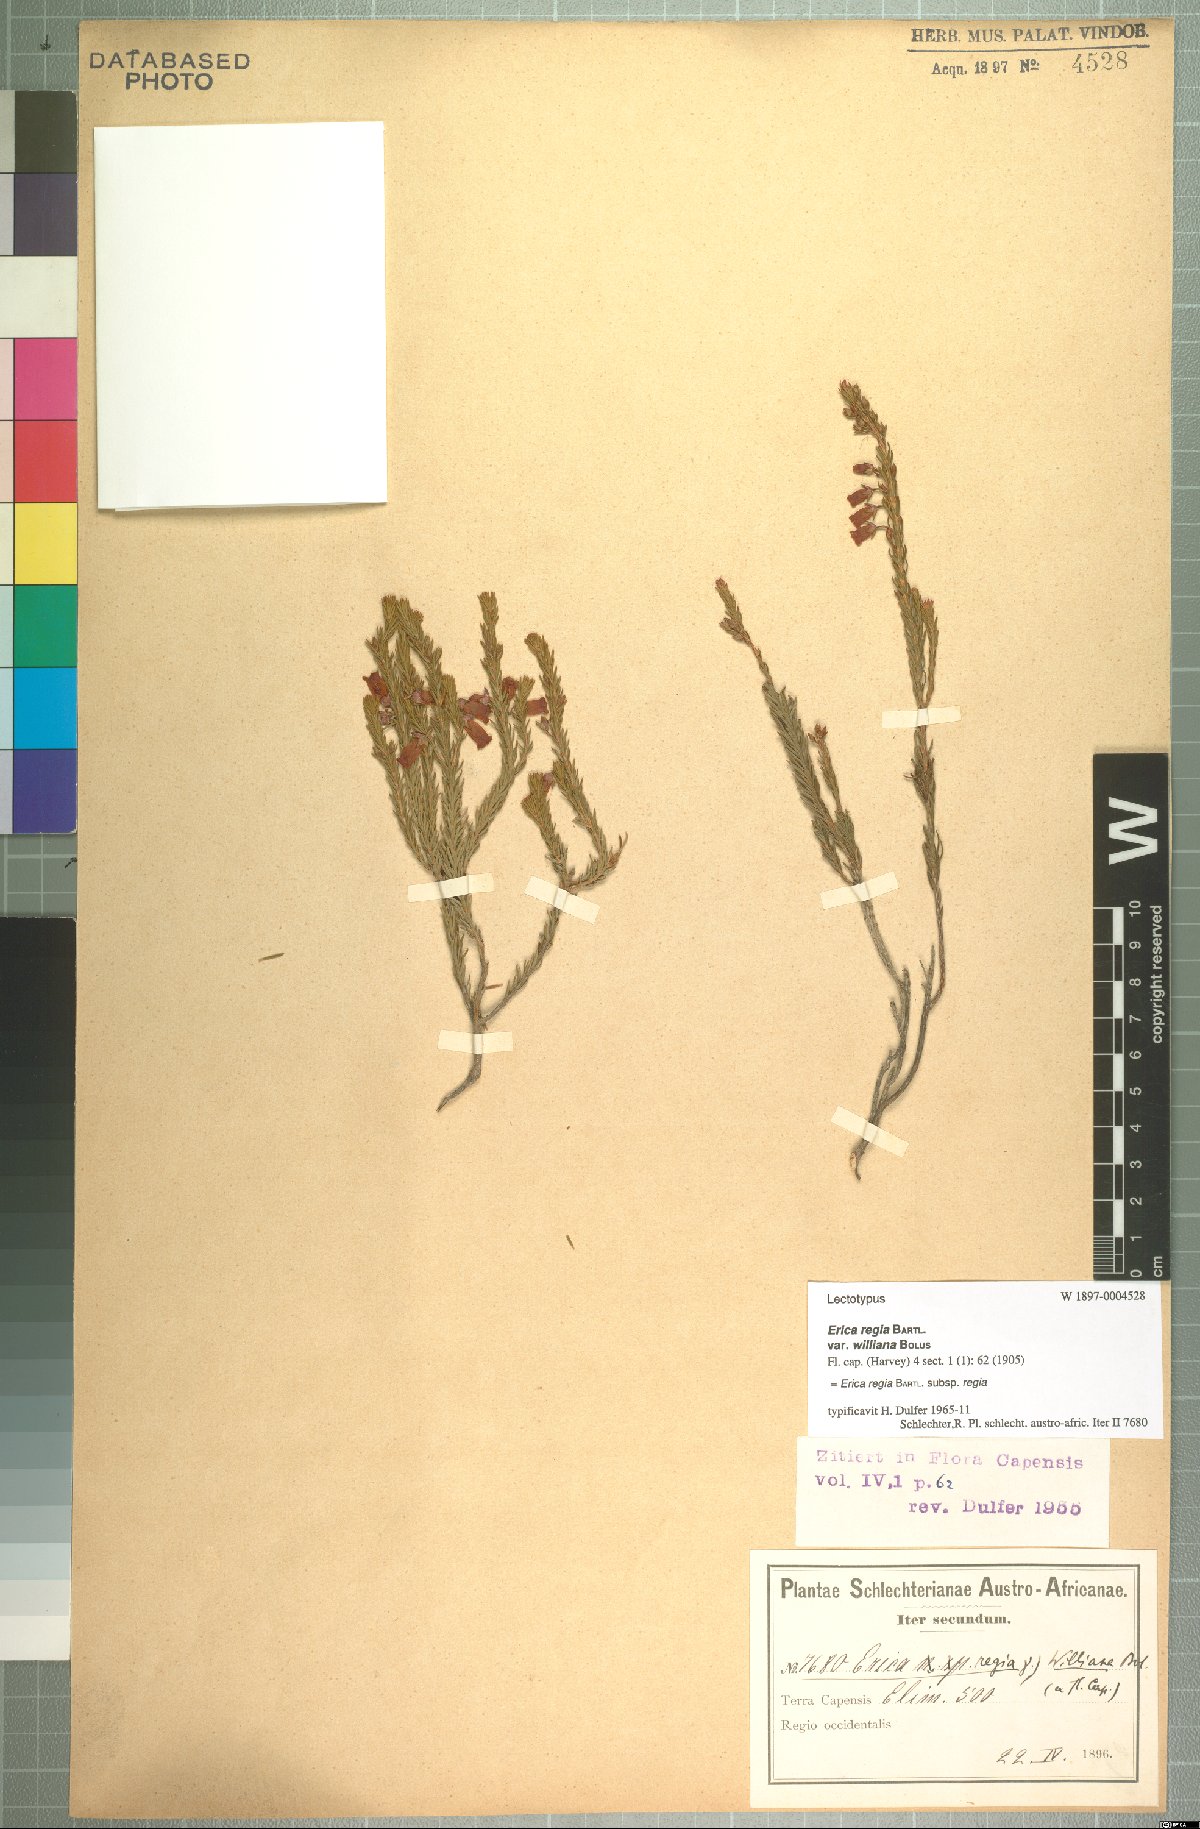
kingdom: Plantae
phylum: Tracheophyta
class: Magnoliopsida
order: Ericales
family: Ericaceae
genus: Erica
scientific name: Erica regia
